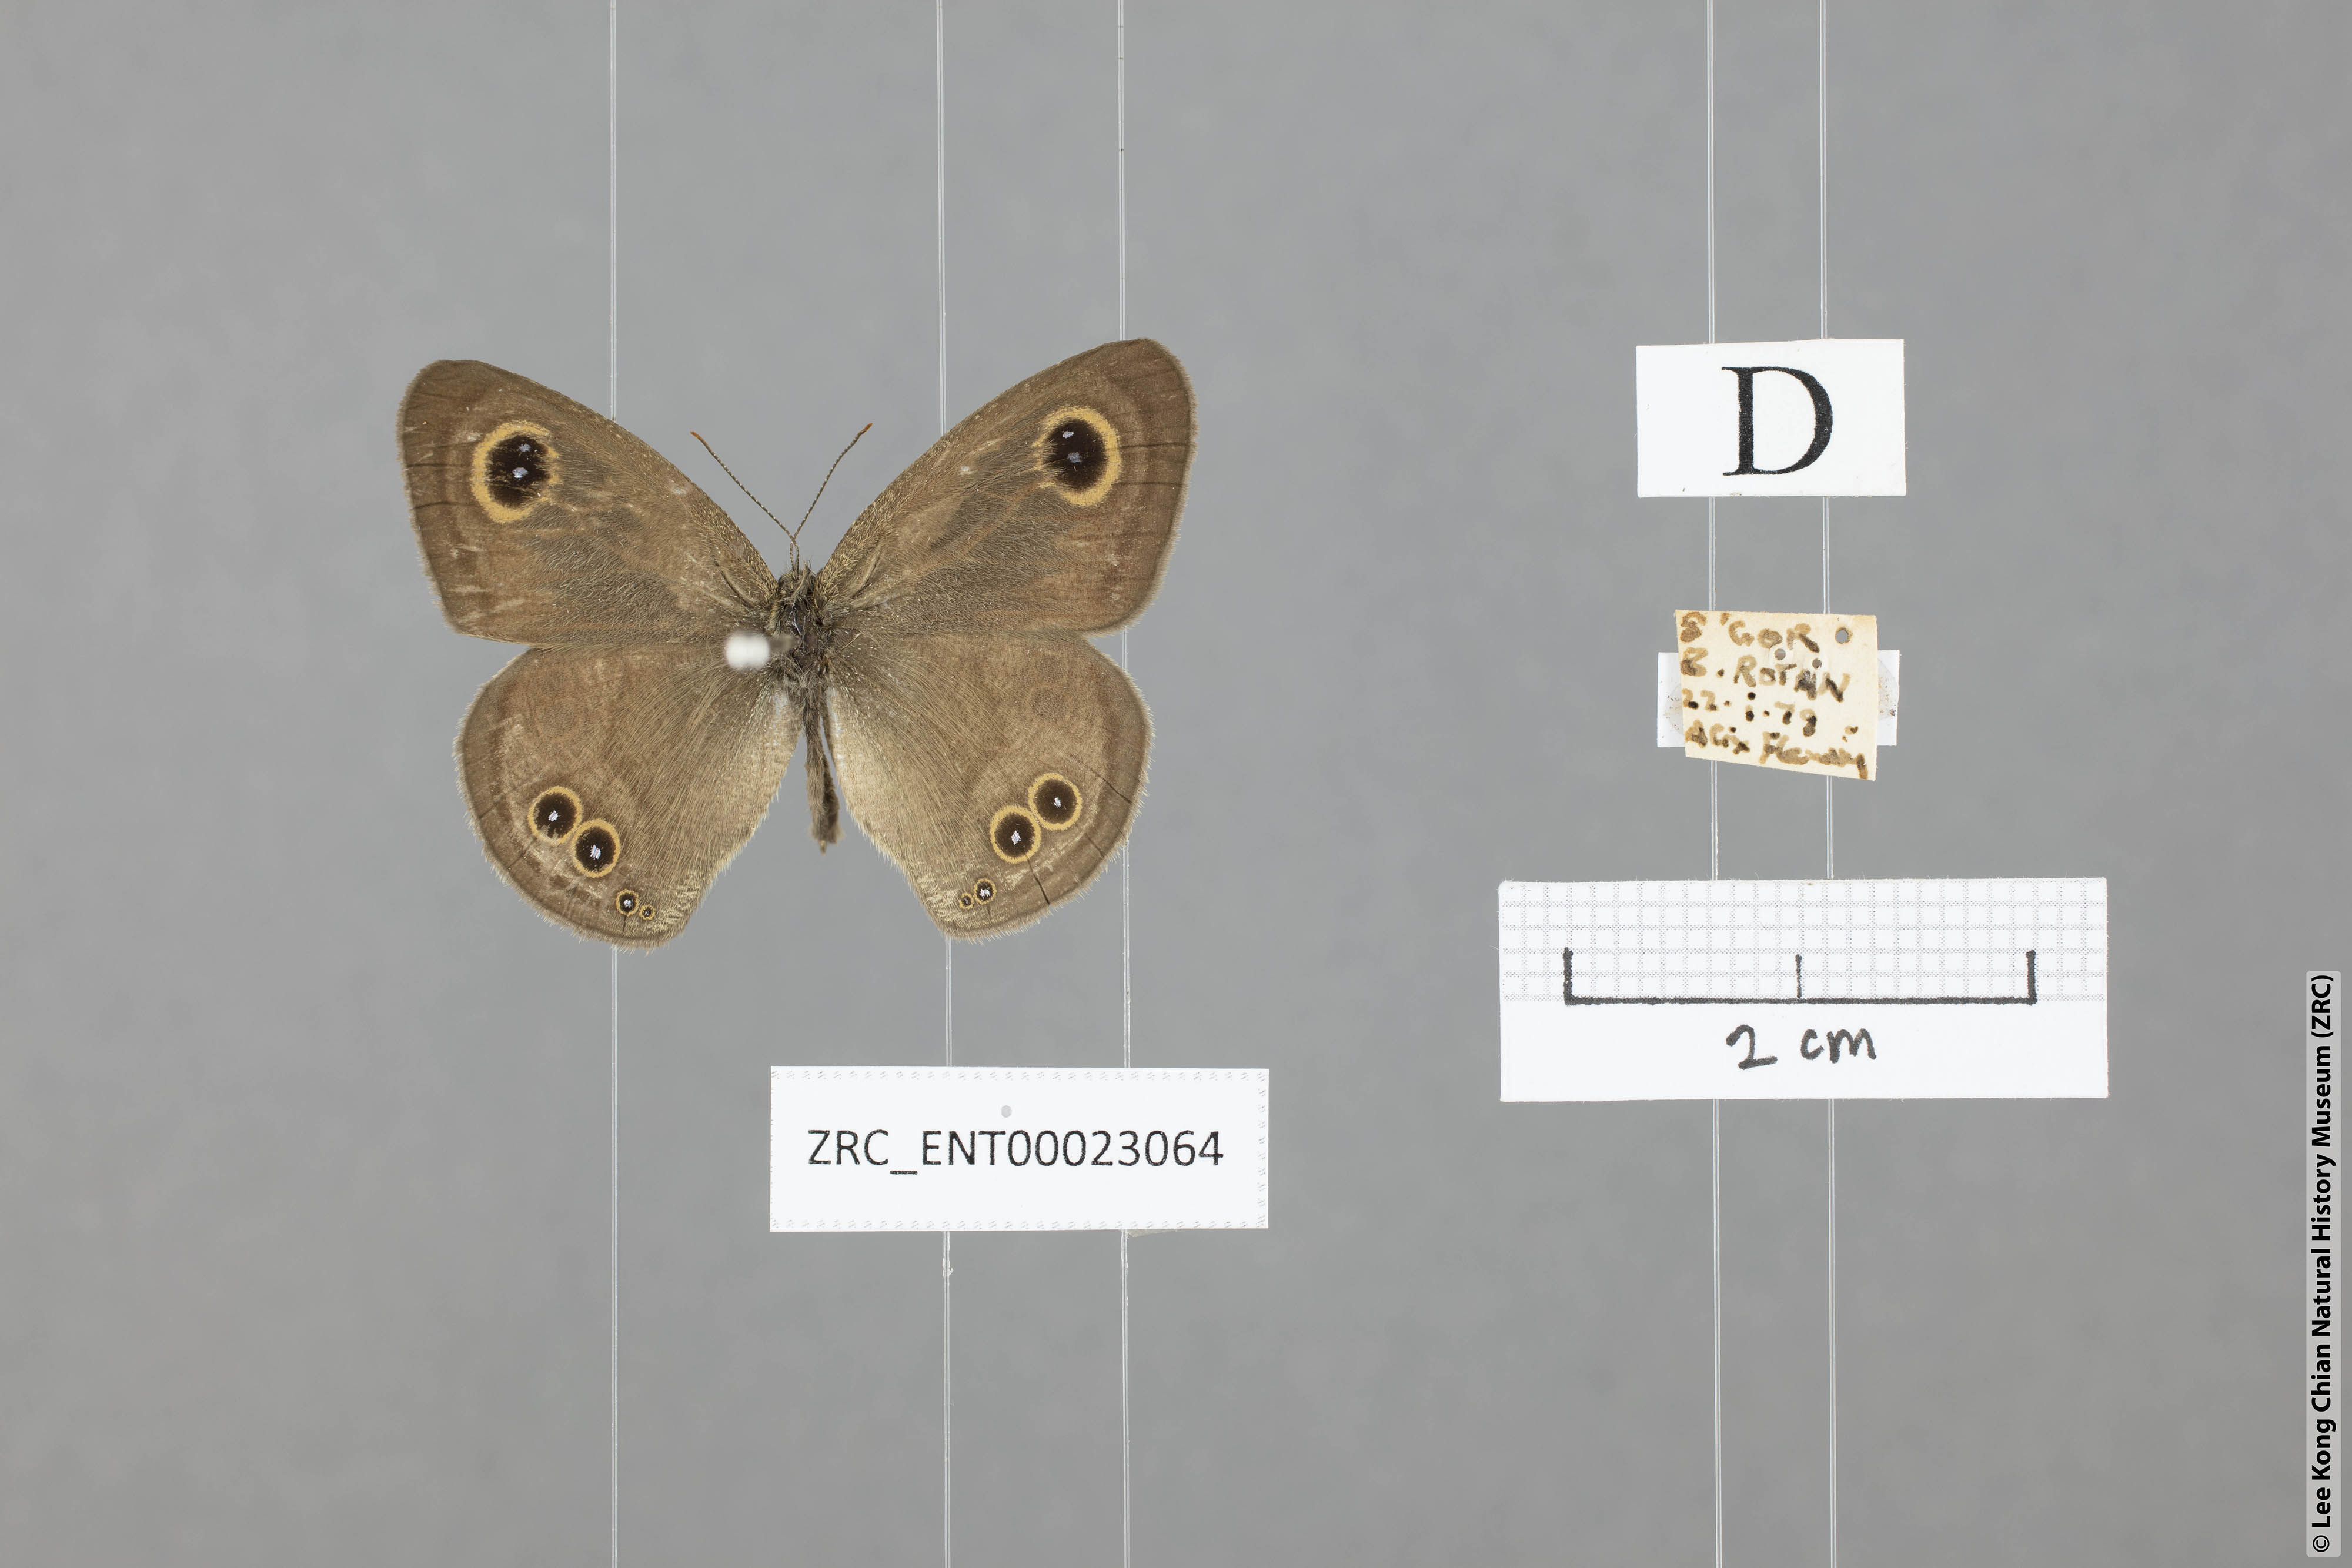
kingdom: Animalia
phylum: Arthropoda
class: Insecta
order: Lepidoptera
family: Nymphalidae
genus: Ypthima
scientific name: Ypthima baldus
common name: Common five-ring
